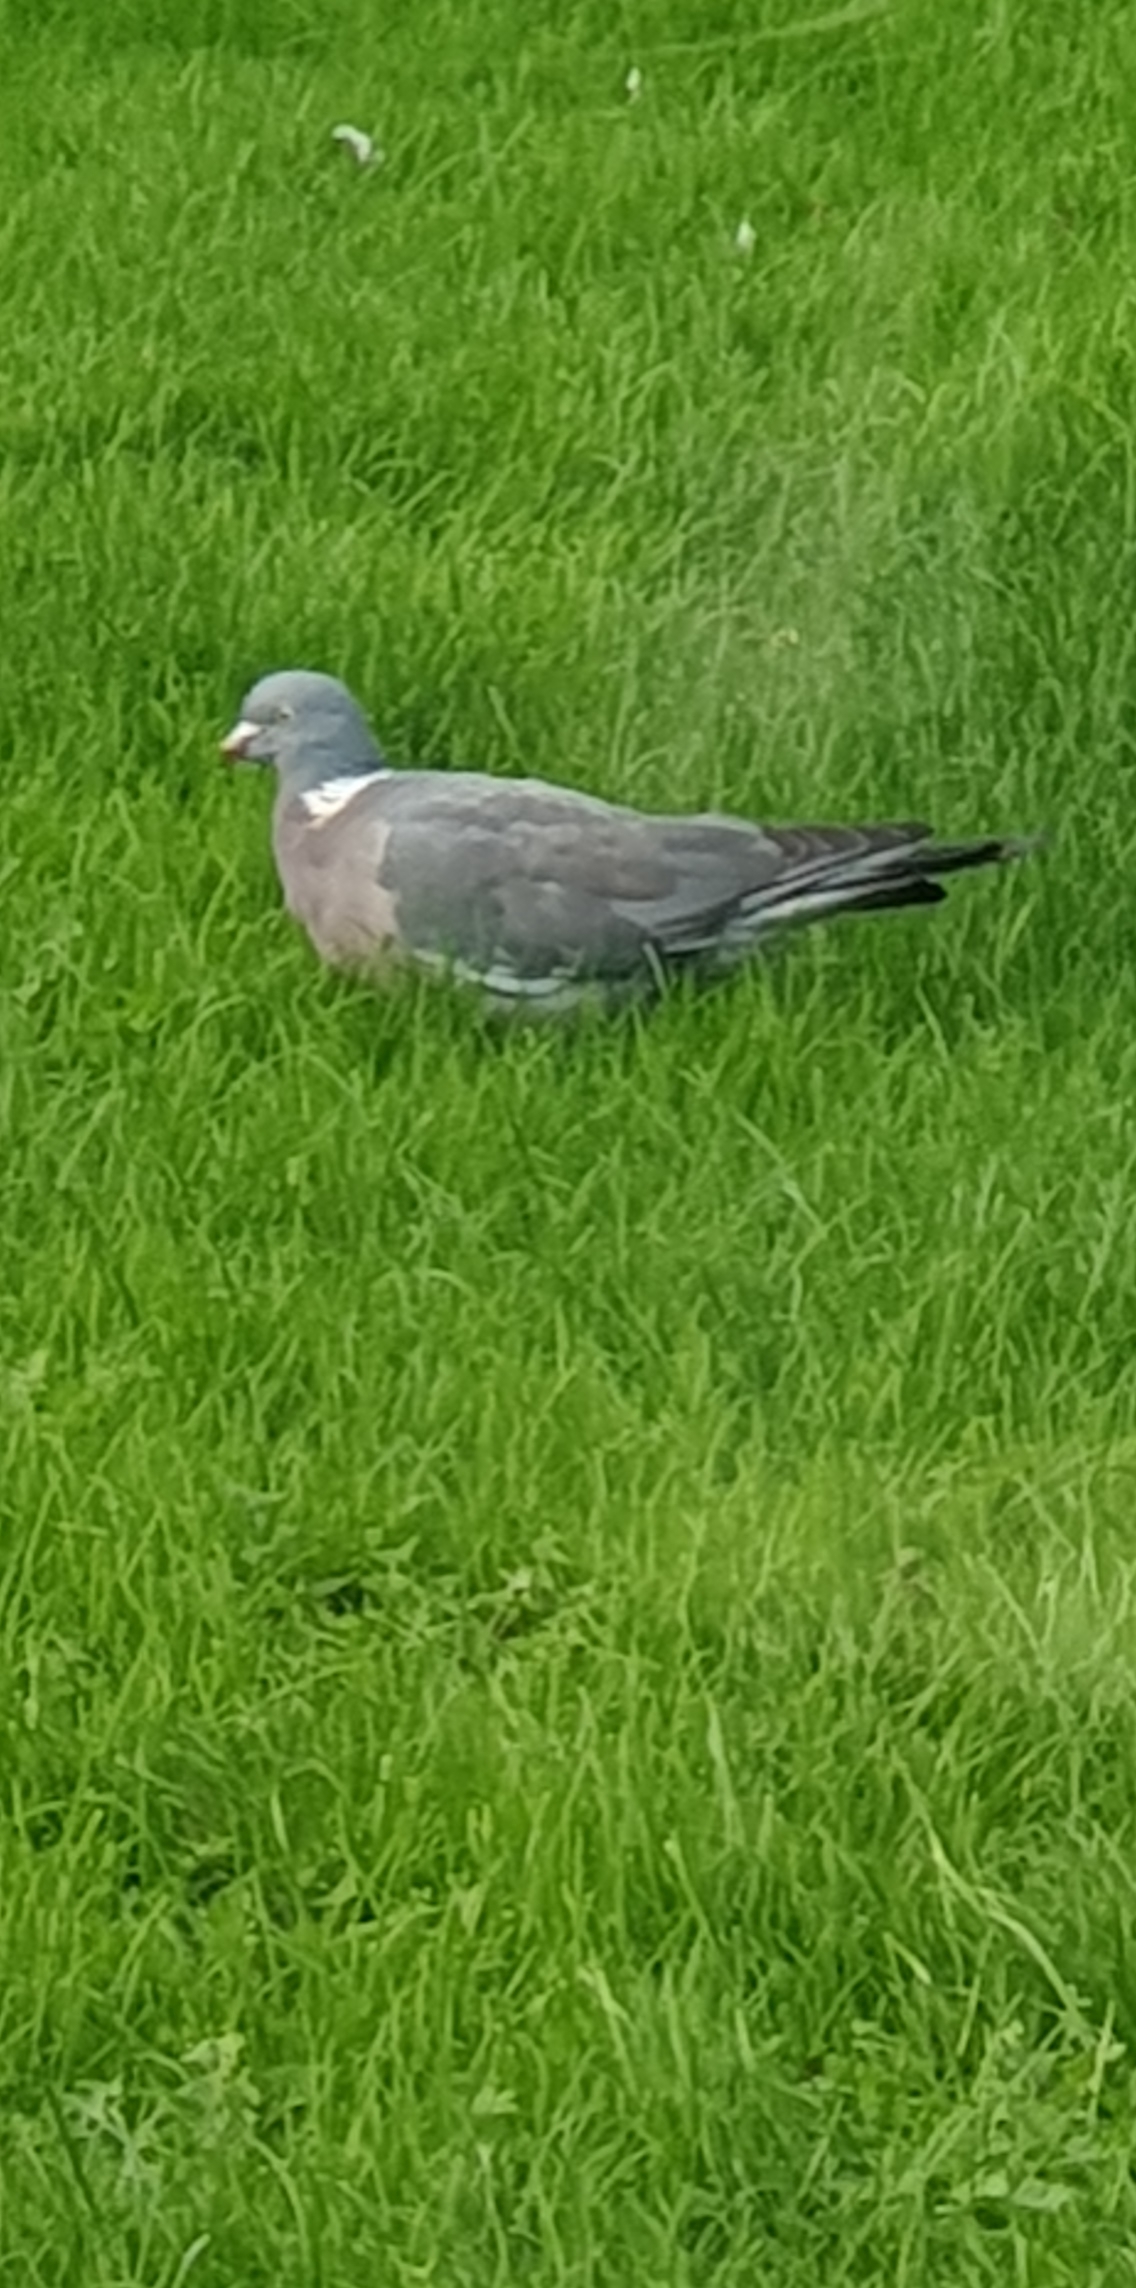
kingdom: Animalia
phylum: Chordata
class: Aves
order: Columbiformes
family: Columbidae
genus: Columba
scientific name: Columba palumbus
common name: Ringdue
